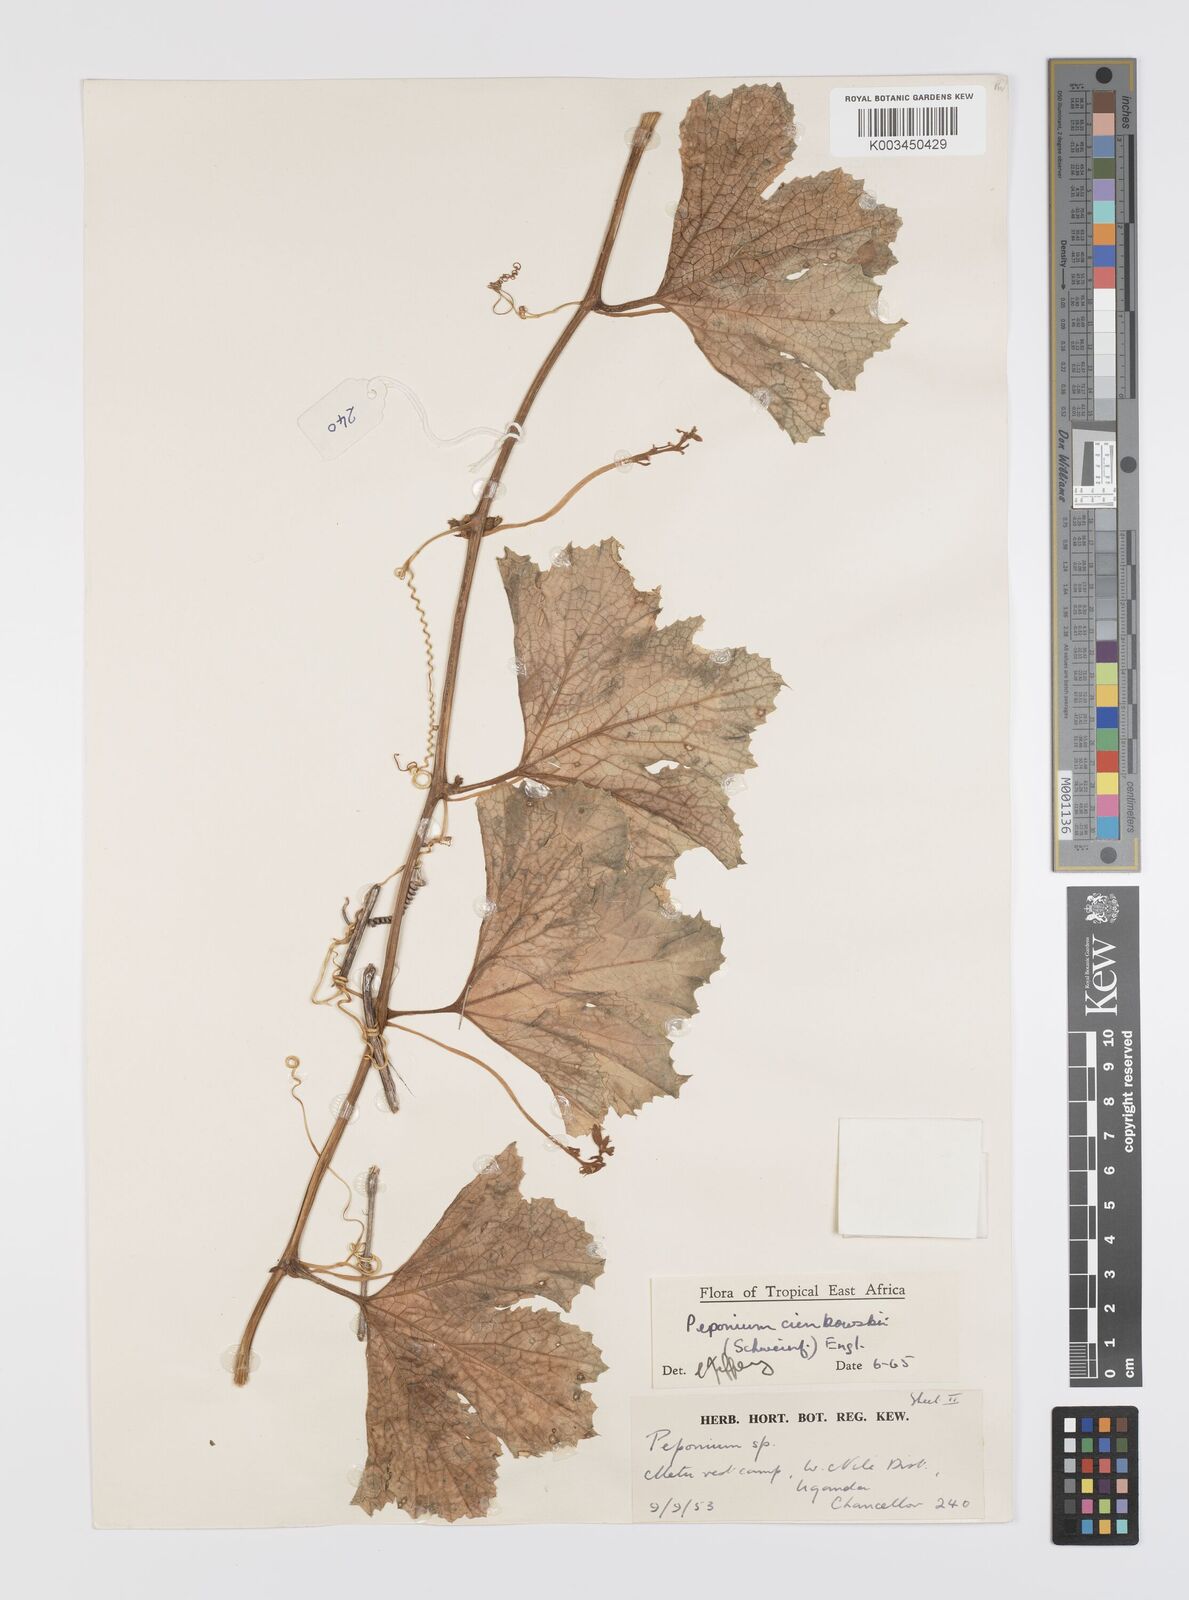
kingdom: Plantae
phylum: Tracheophyta
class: Magnoliopsida
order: Cucurbitales
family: Cucurbitaceae
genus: Peponium
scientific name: Peponium cienkowskii
